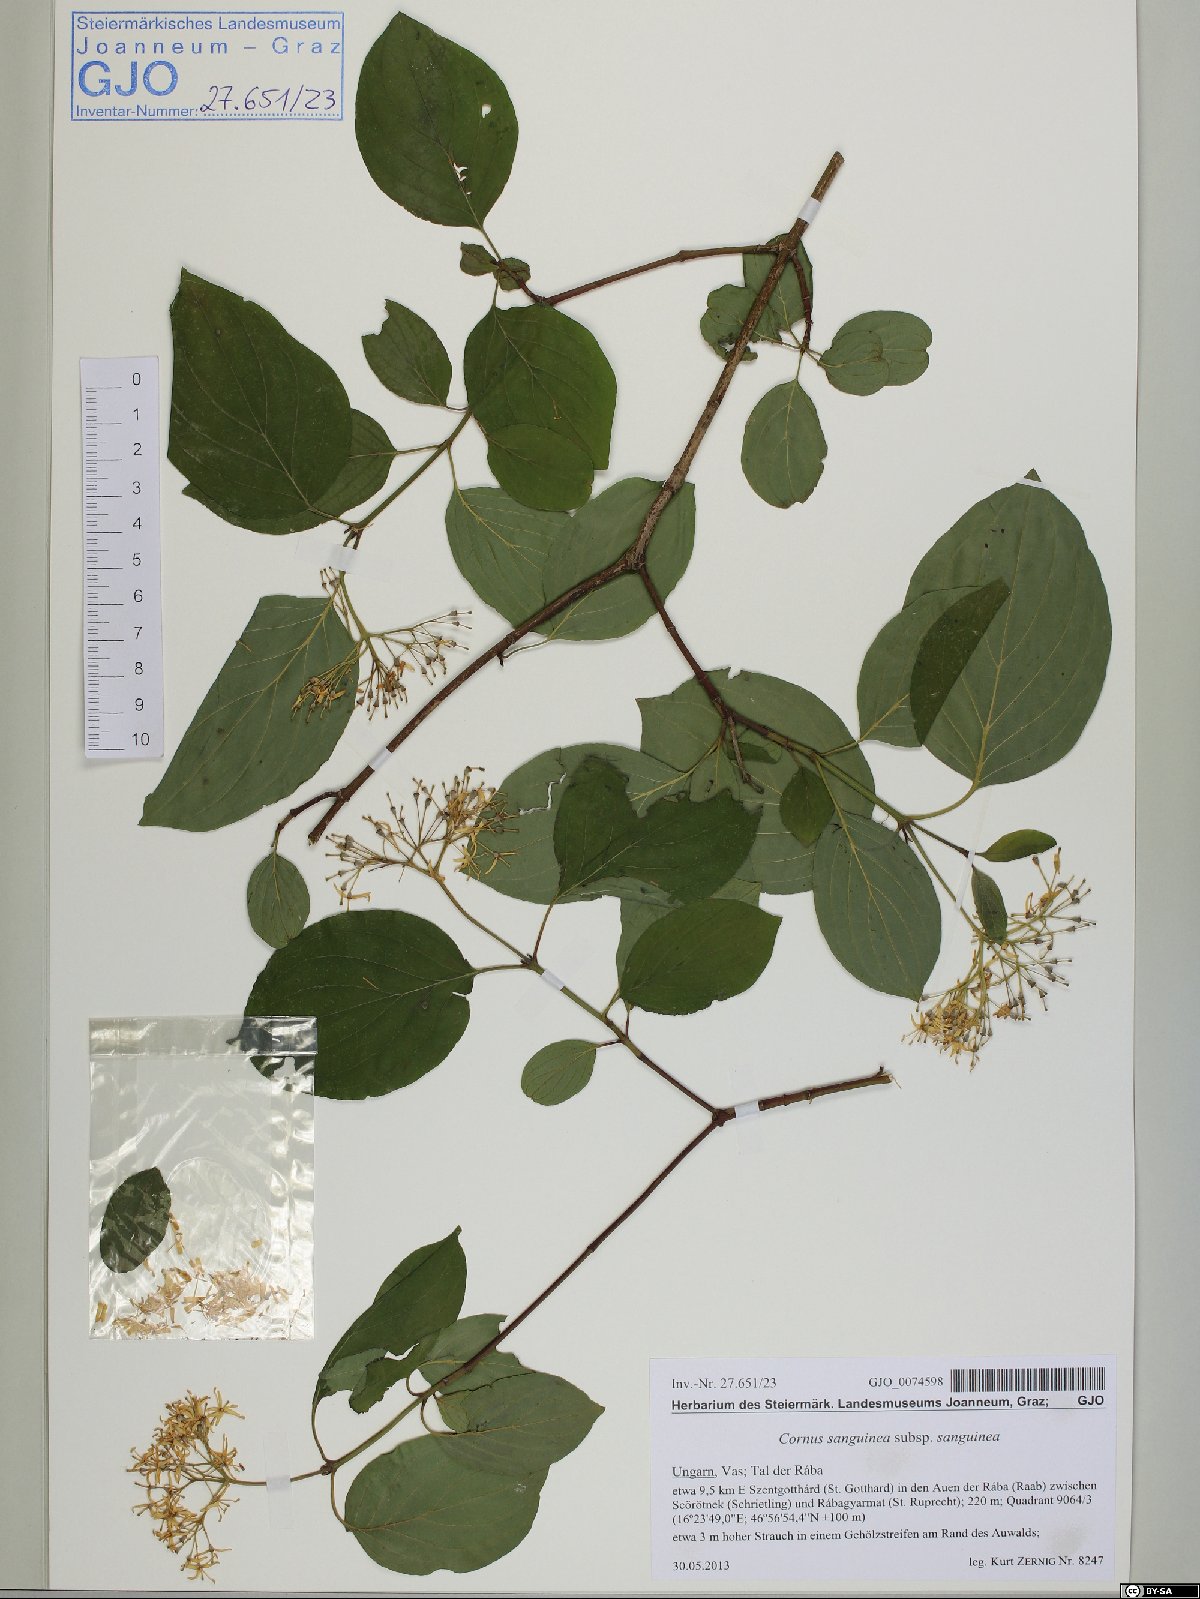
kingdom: Plantae
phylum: Tracheophyta
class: Magnoliopsida
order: Cornales
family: Cornaceae
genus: Cornus
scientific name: Cornus sanguinea
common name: Dogwood
